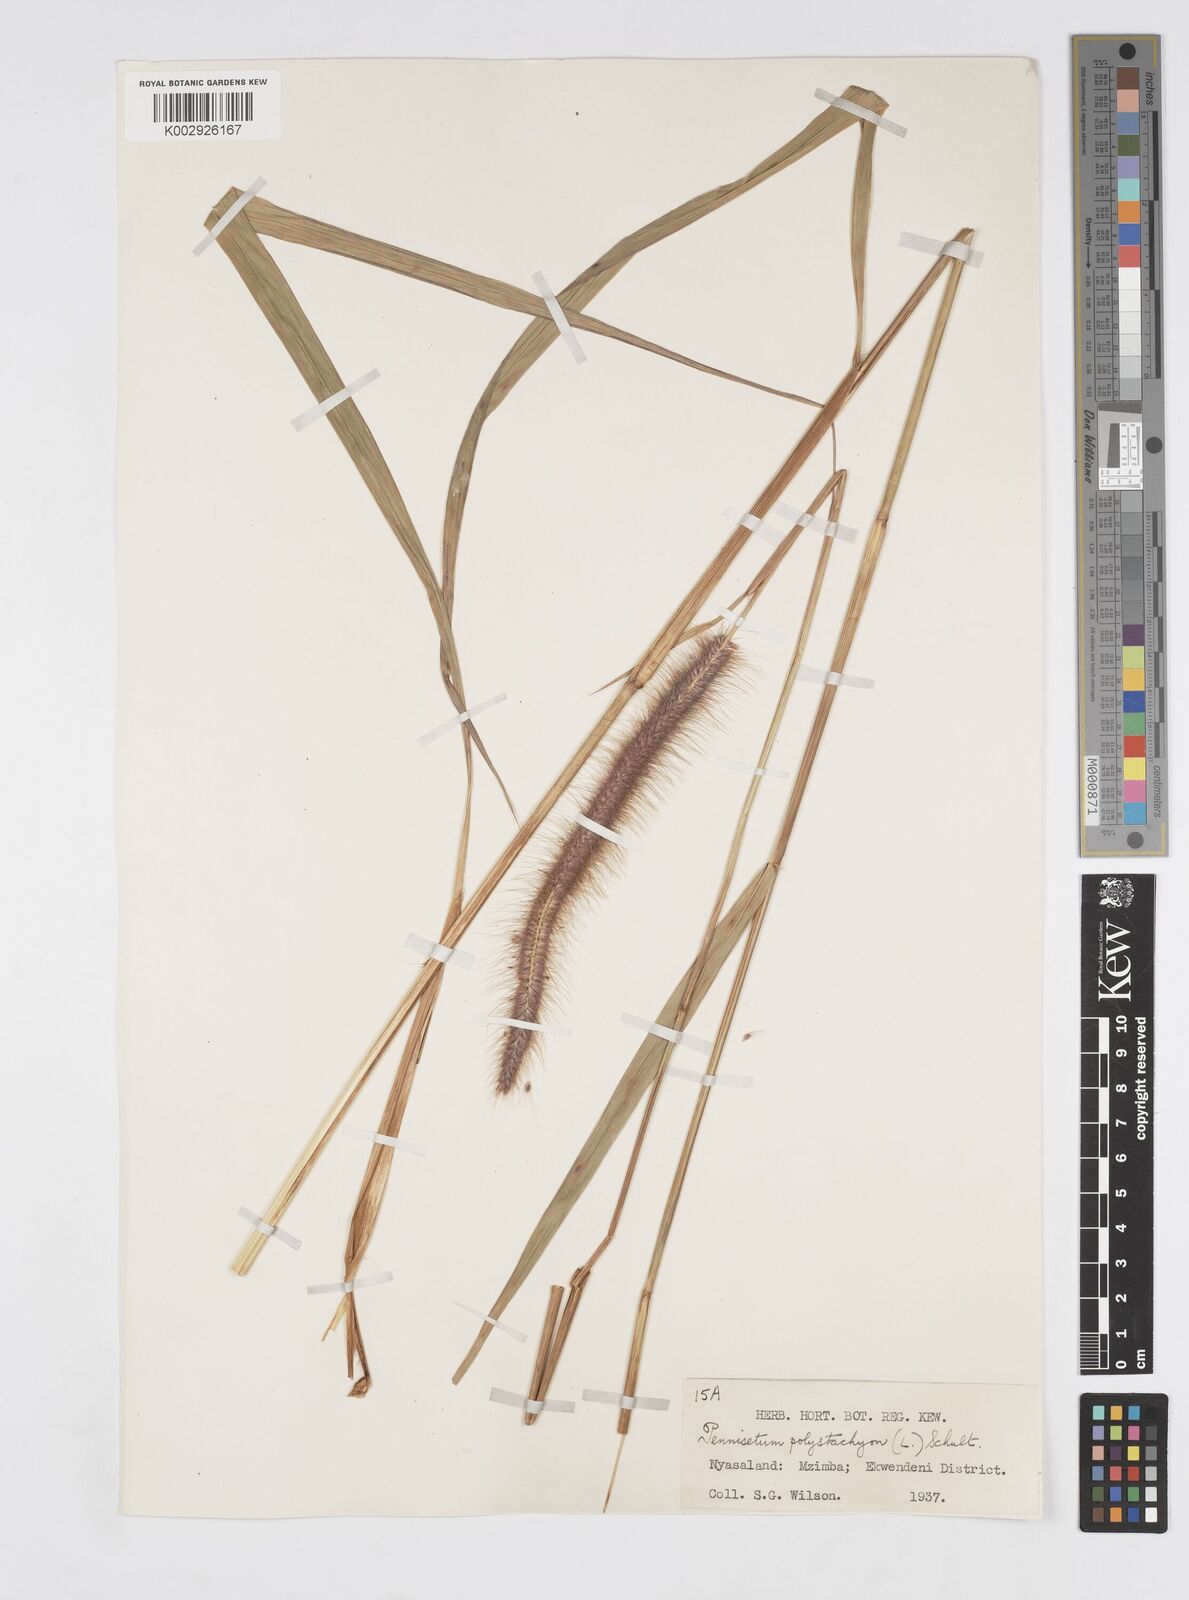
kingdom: Plantae
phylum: Tracheophyta
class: Liliopsida
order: Poales
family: Poaceae
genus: Setaria
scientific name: Setaria parviflora
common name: Knotroot bristle-grass
